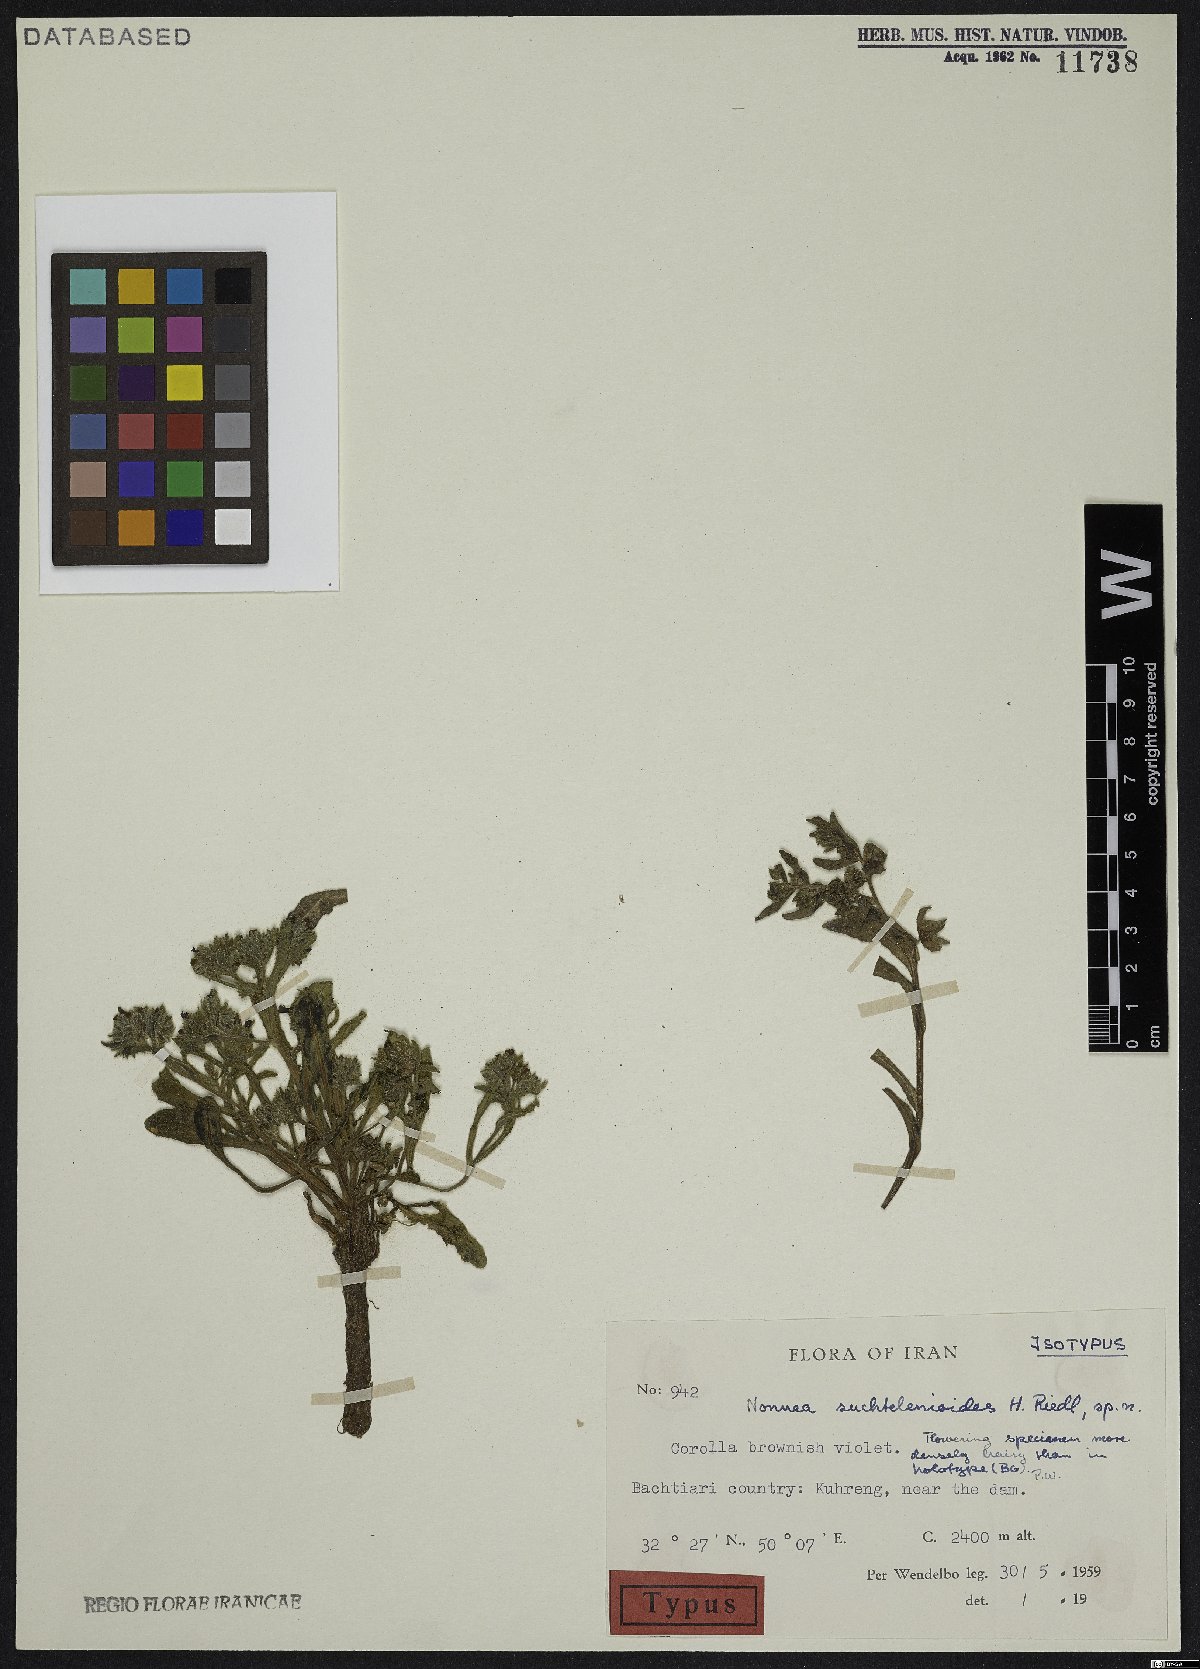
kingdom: Plantae
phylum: Tracheophyta
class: Magnoliopsida
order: Boraginales
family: Boraginaceae
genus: Nonea
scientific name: Nonea persica
